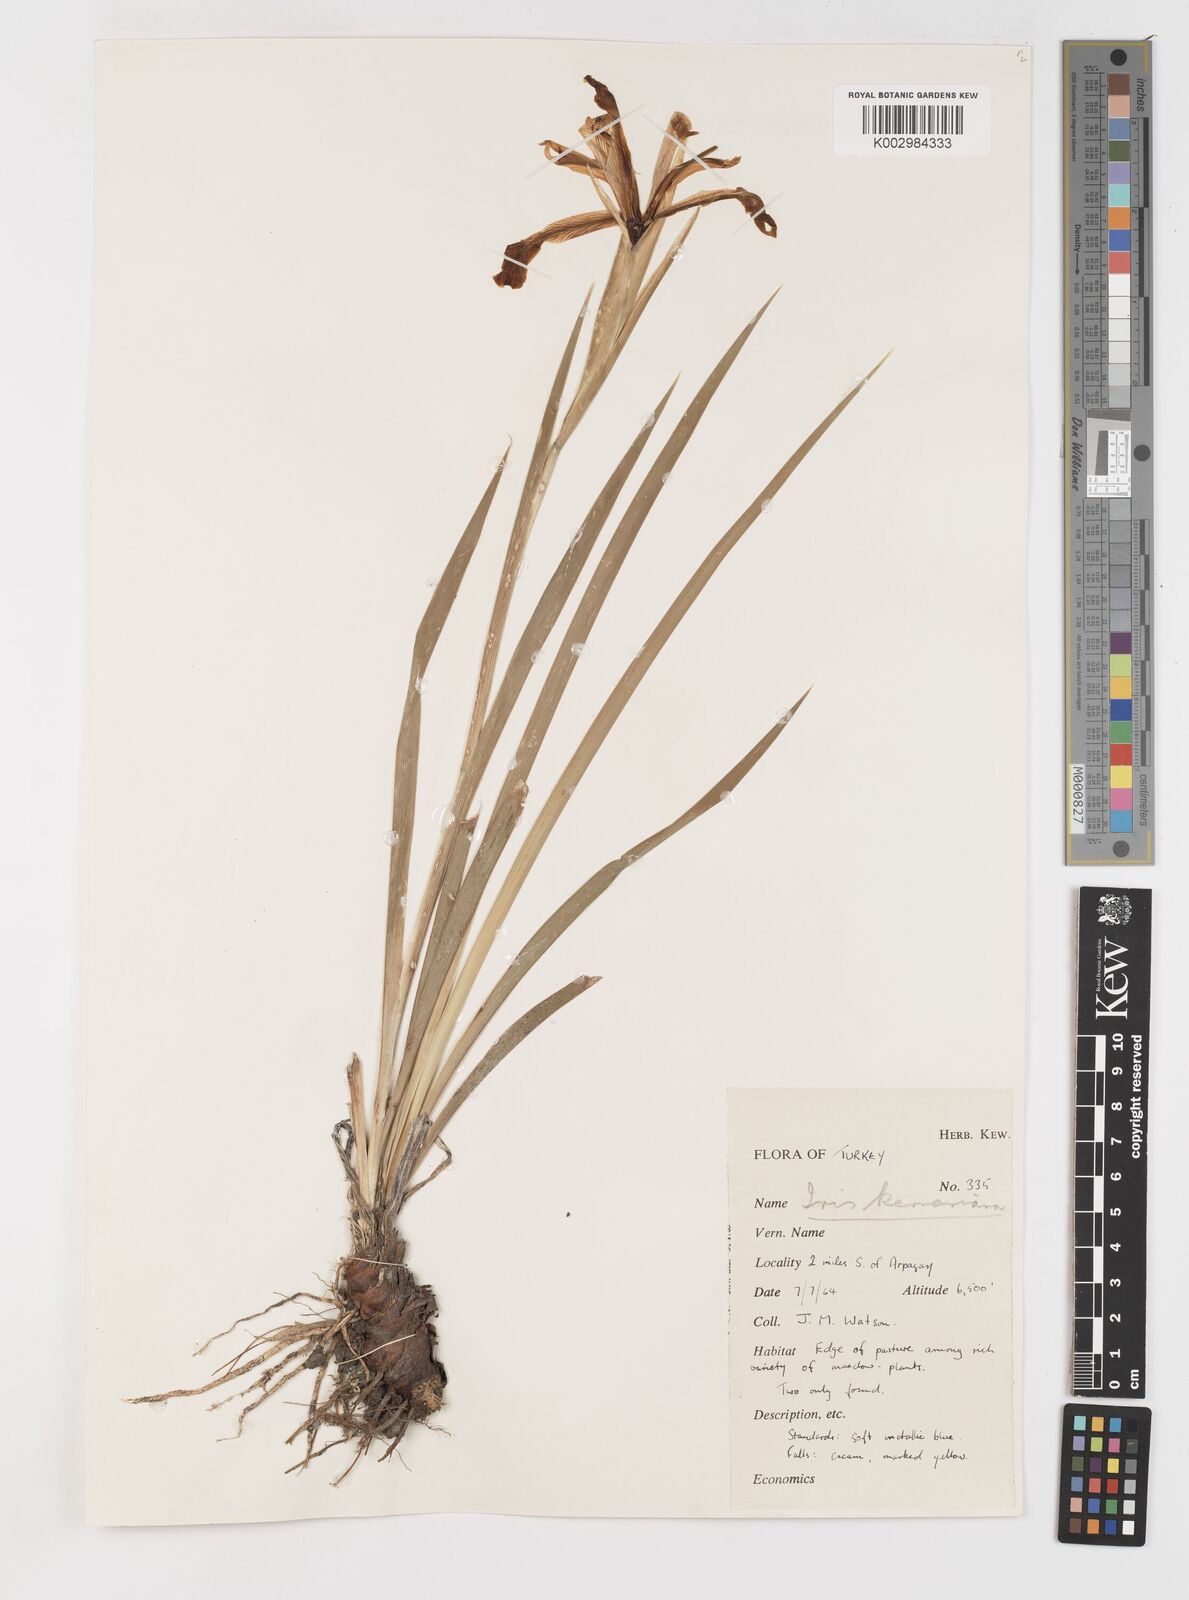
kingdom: Plantae
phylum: Tracheophyta
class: Liliopsida
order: Asparagales
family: Iridaceae
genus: Iris
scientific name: Iris spuria
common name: Blue iris
